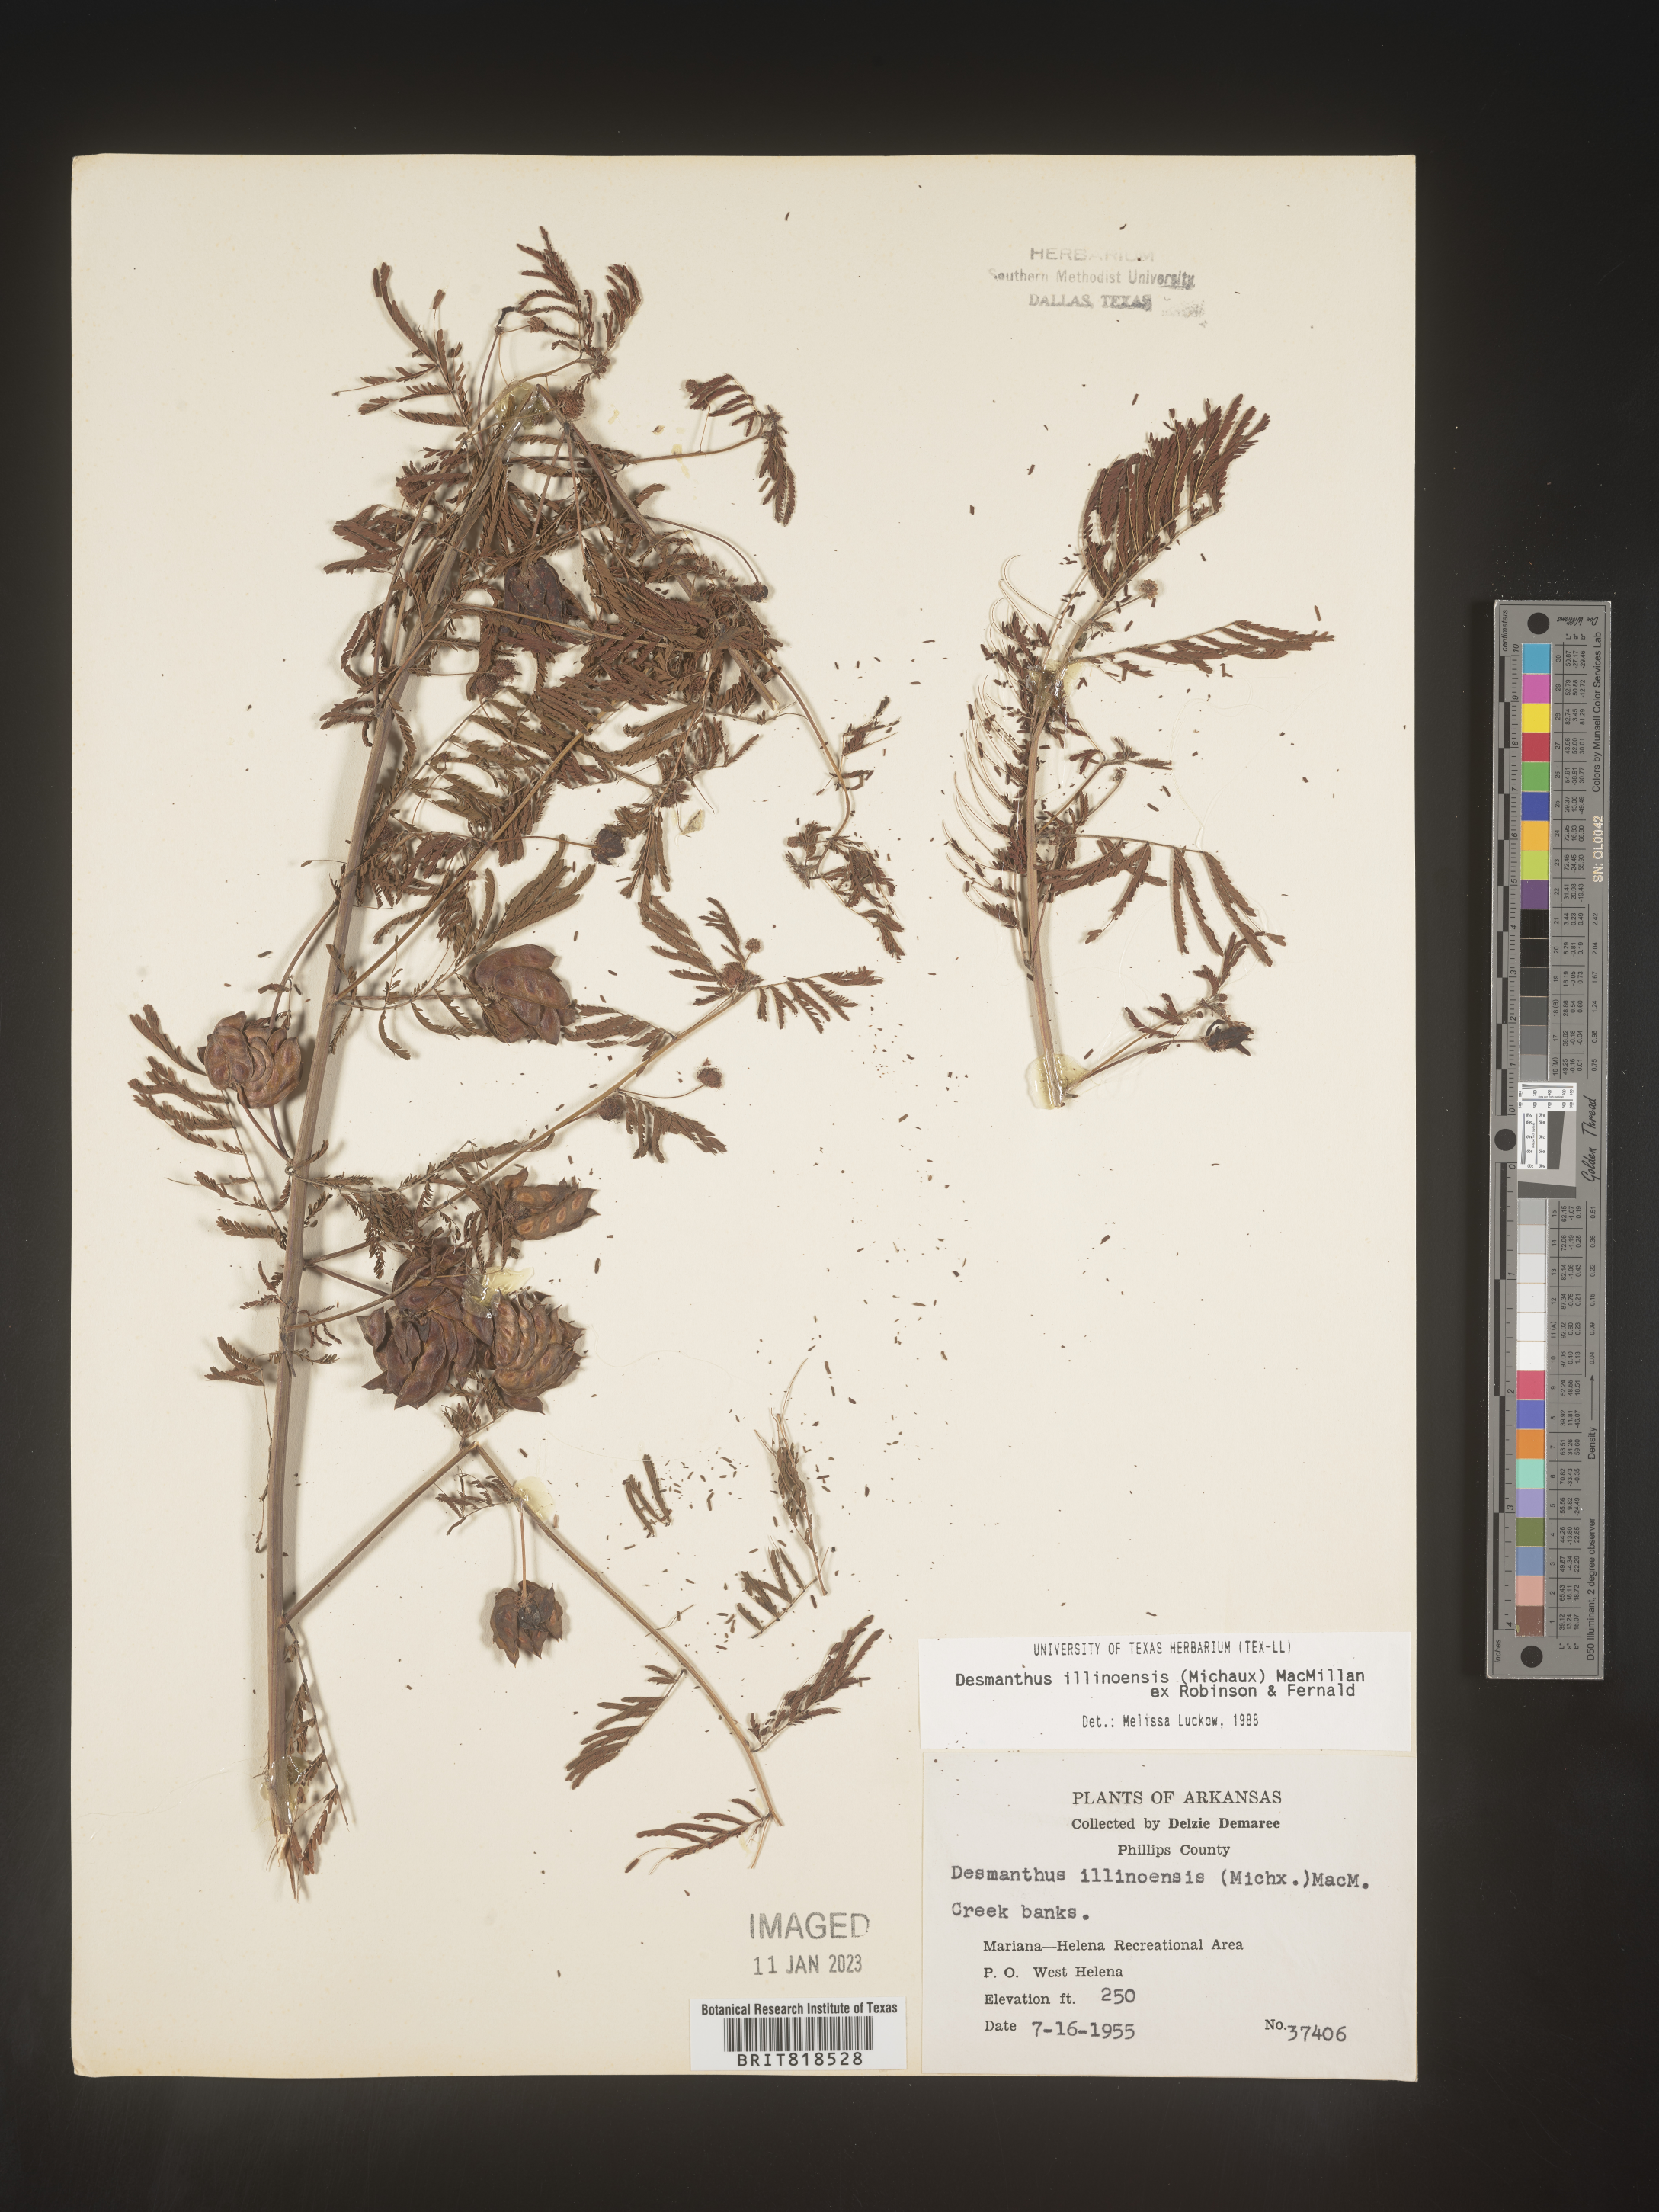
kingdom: Plantae
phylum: Tracheophyta
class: Magnoliopsida
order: Fabales
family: Fabaceae
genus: Desmanthus
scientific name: Desmanthus illinoensis
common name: Illinois bundle-flower
